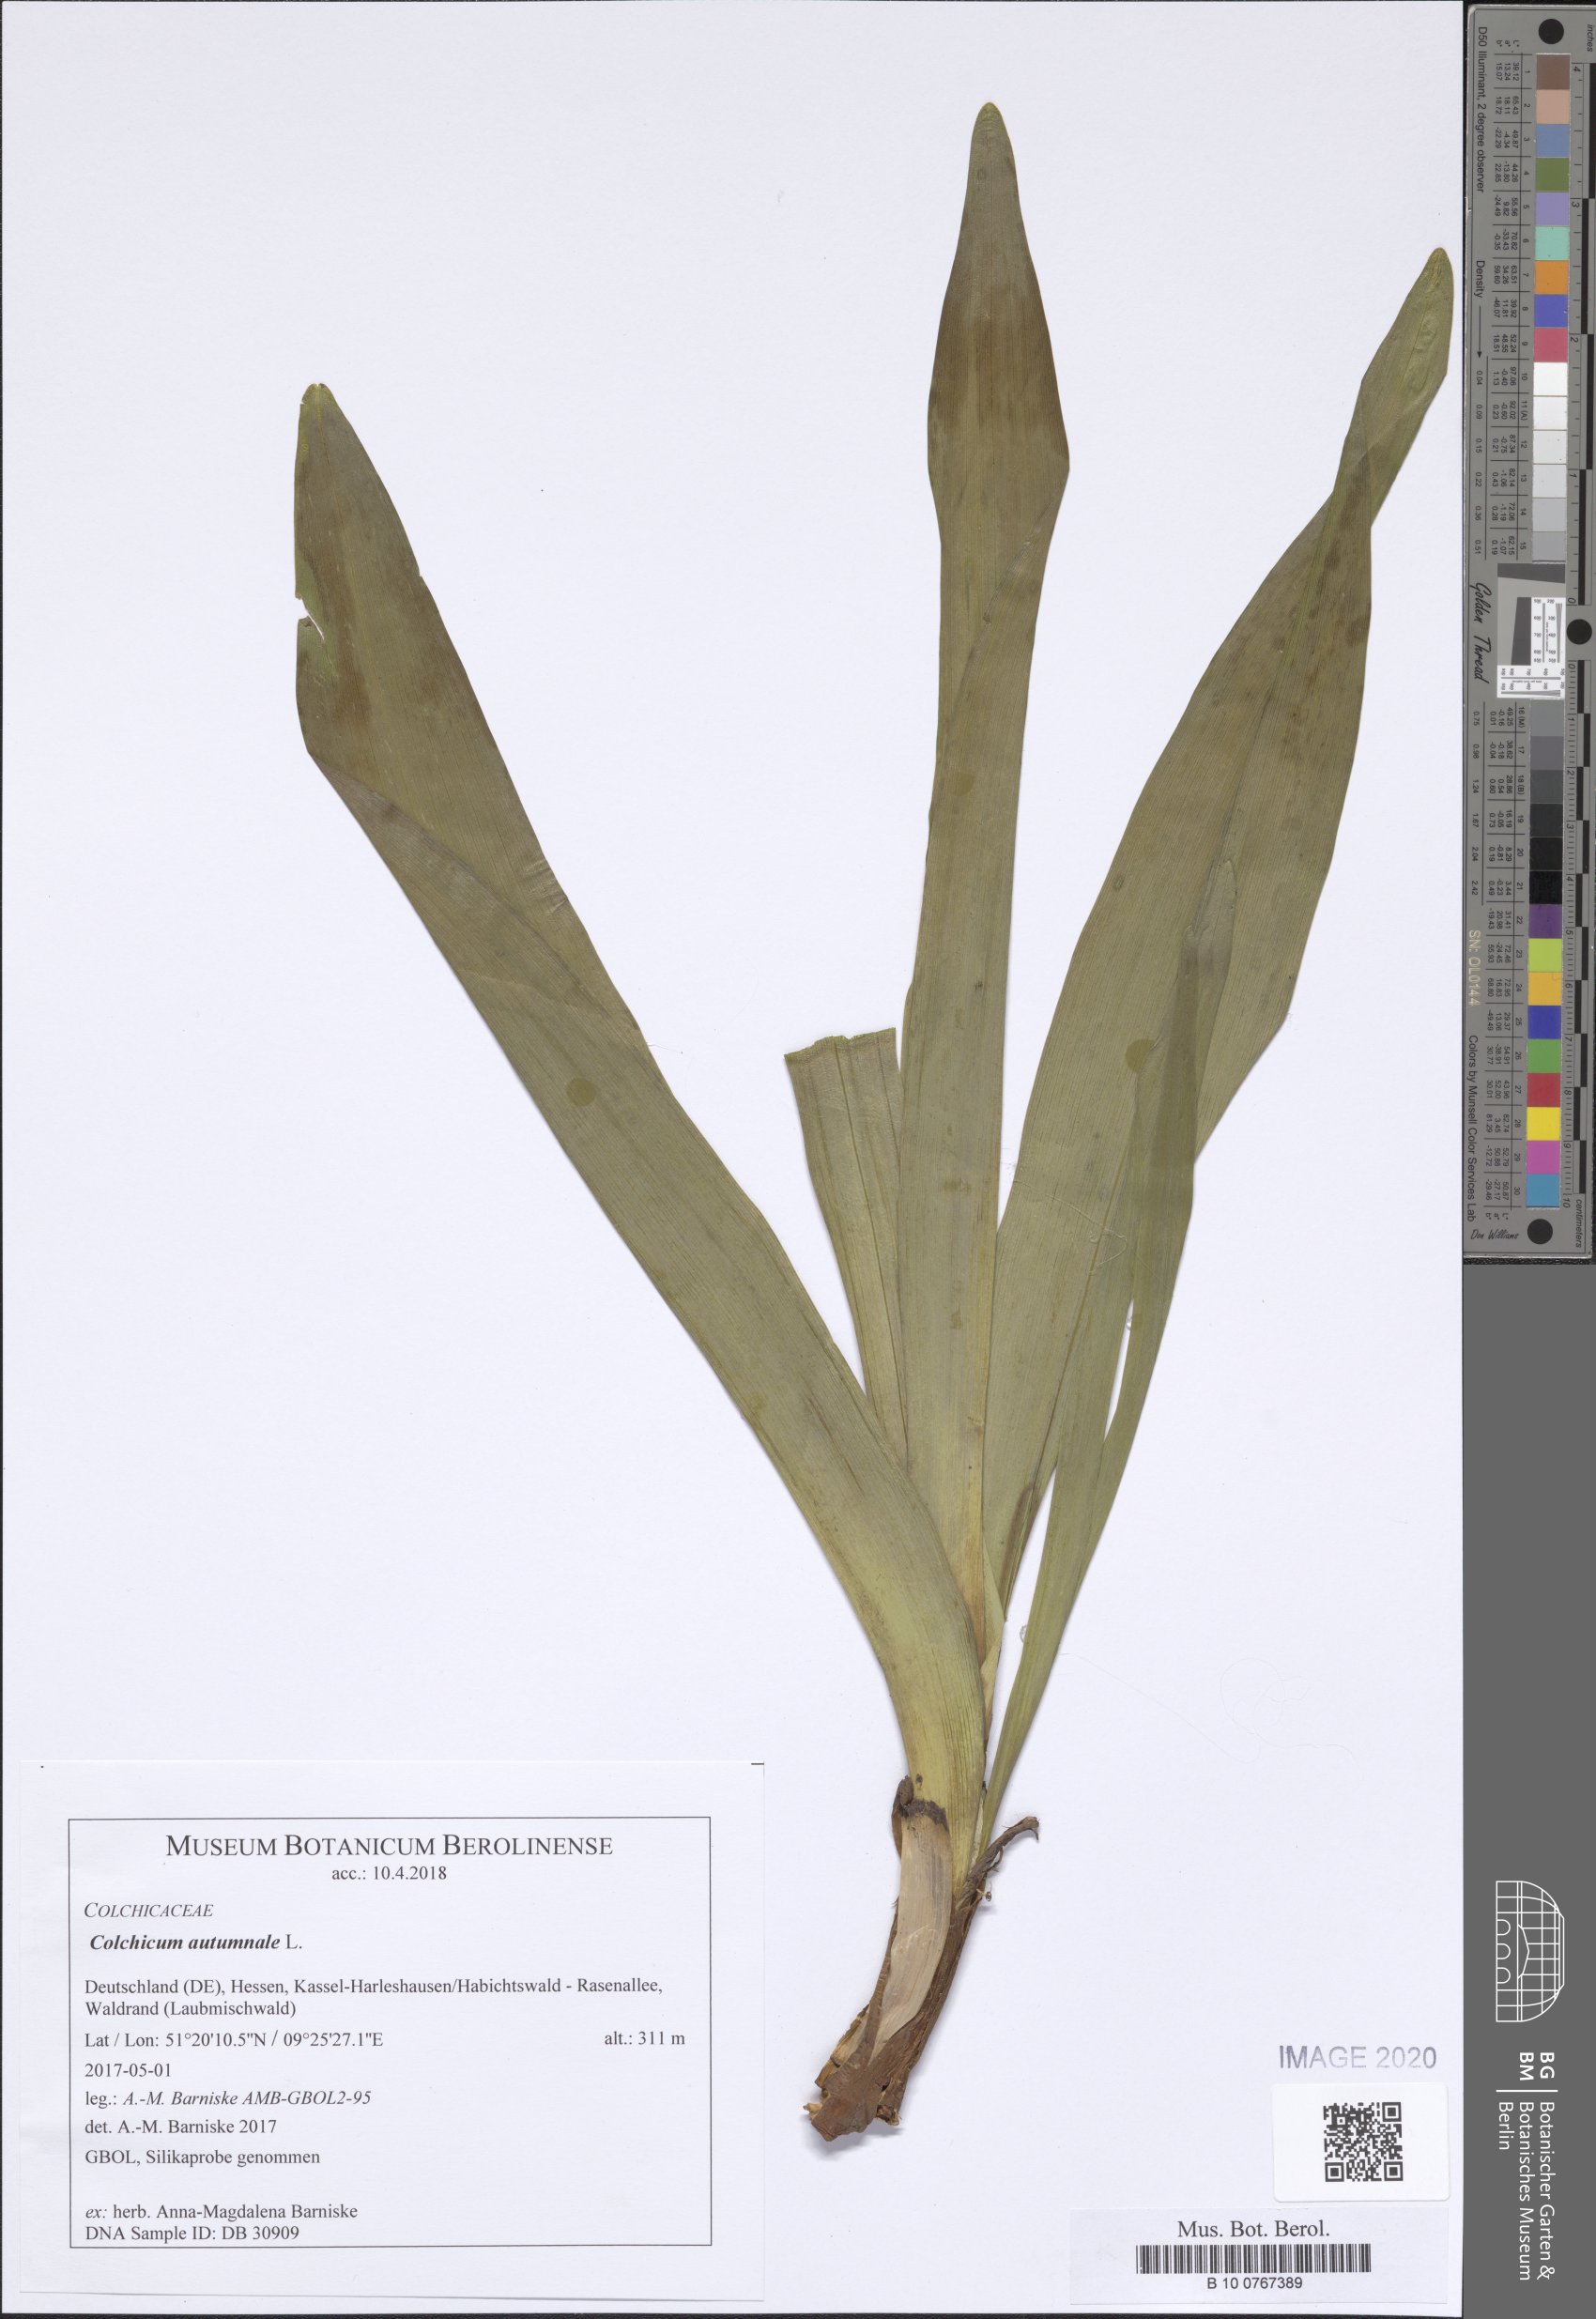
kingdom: Plantae
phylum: Tracheophyta
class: Liliopsida
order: Liliales
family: Colchicaceae
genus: Colchicum
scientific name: Colchicum autumnale
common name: Autumn crocus
